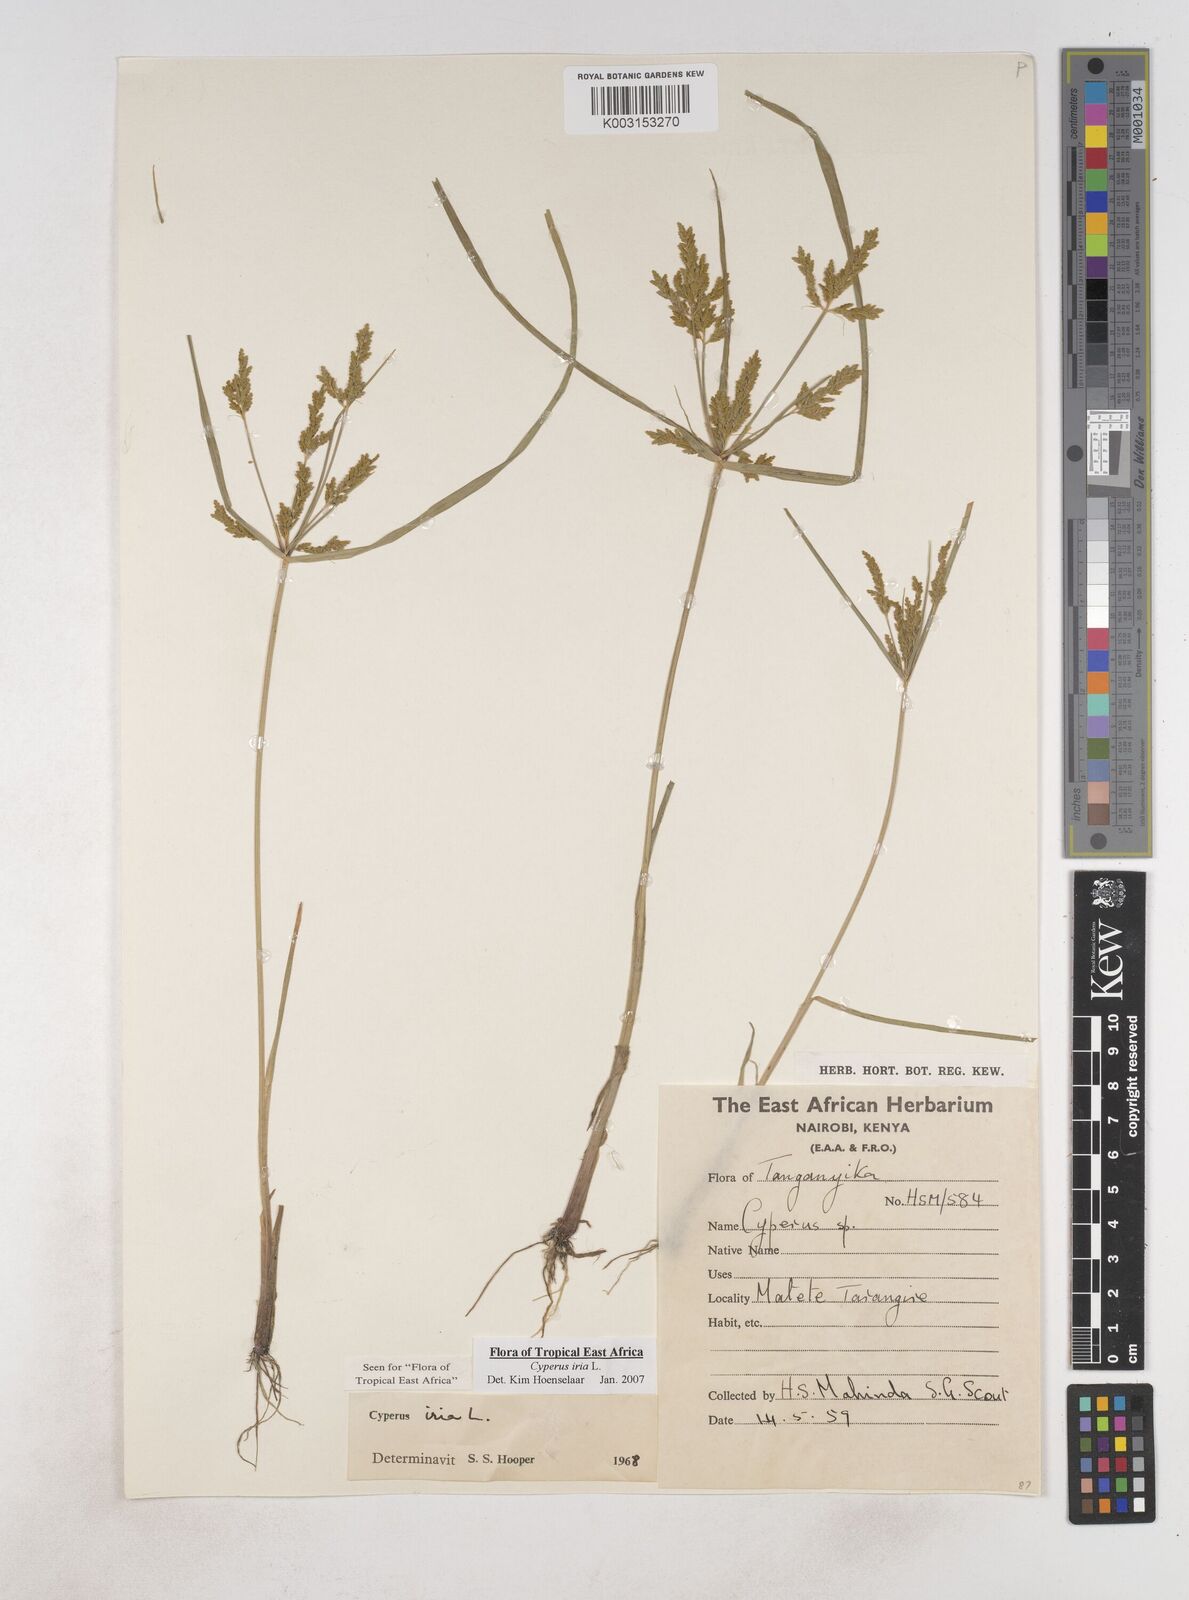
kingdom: Plantae
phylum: Tracheophyta
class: Liliopsida
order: Poales
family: Cyperaceae
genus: Cyperus
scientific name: Cyperus iria
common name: Ricefield flatsedge
